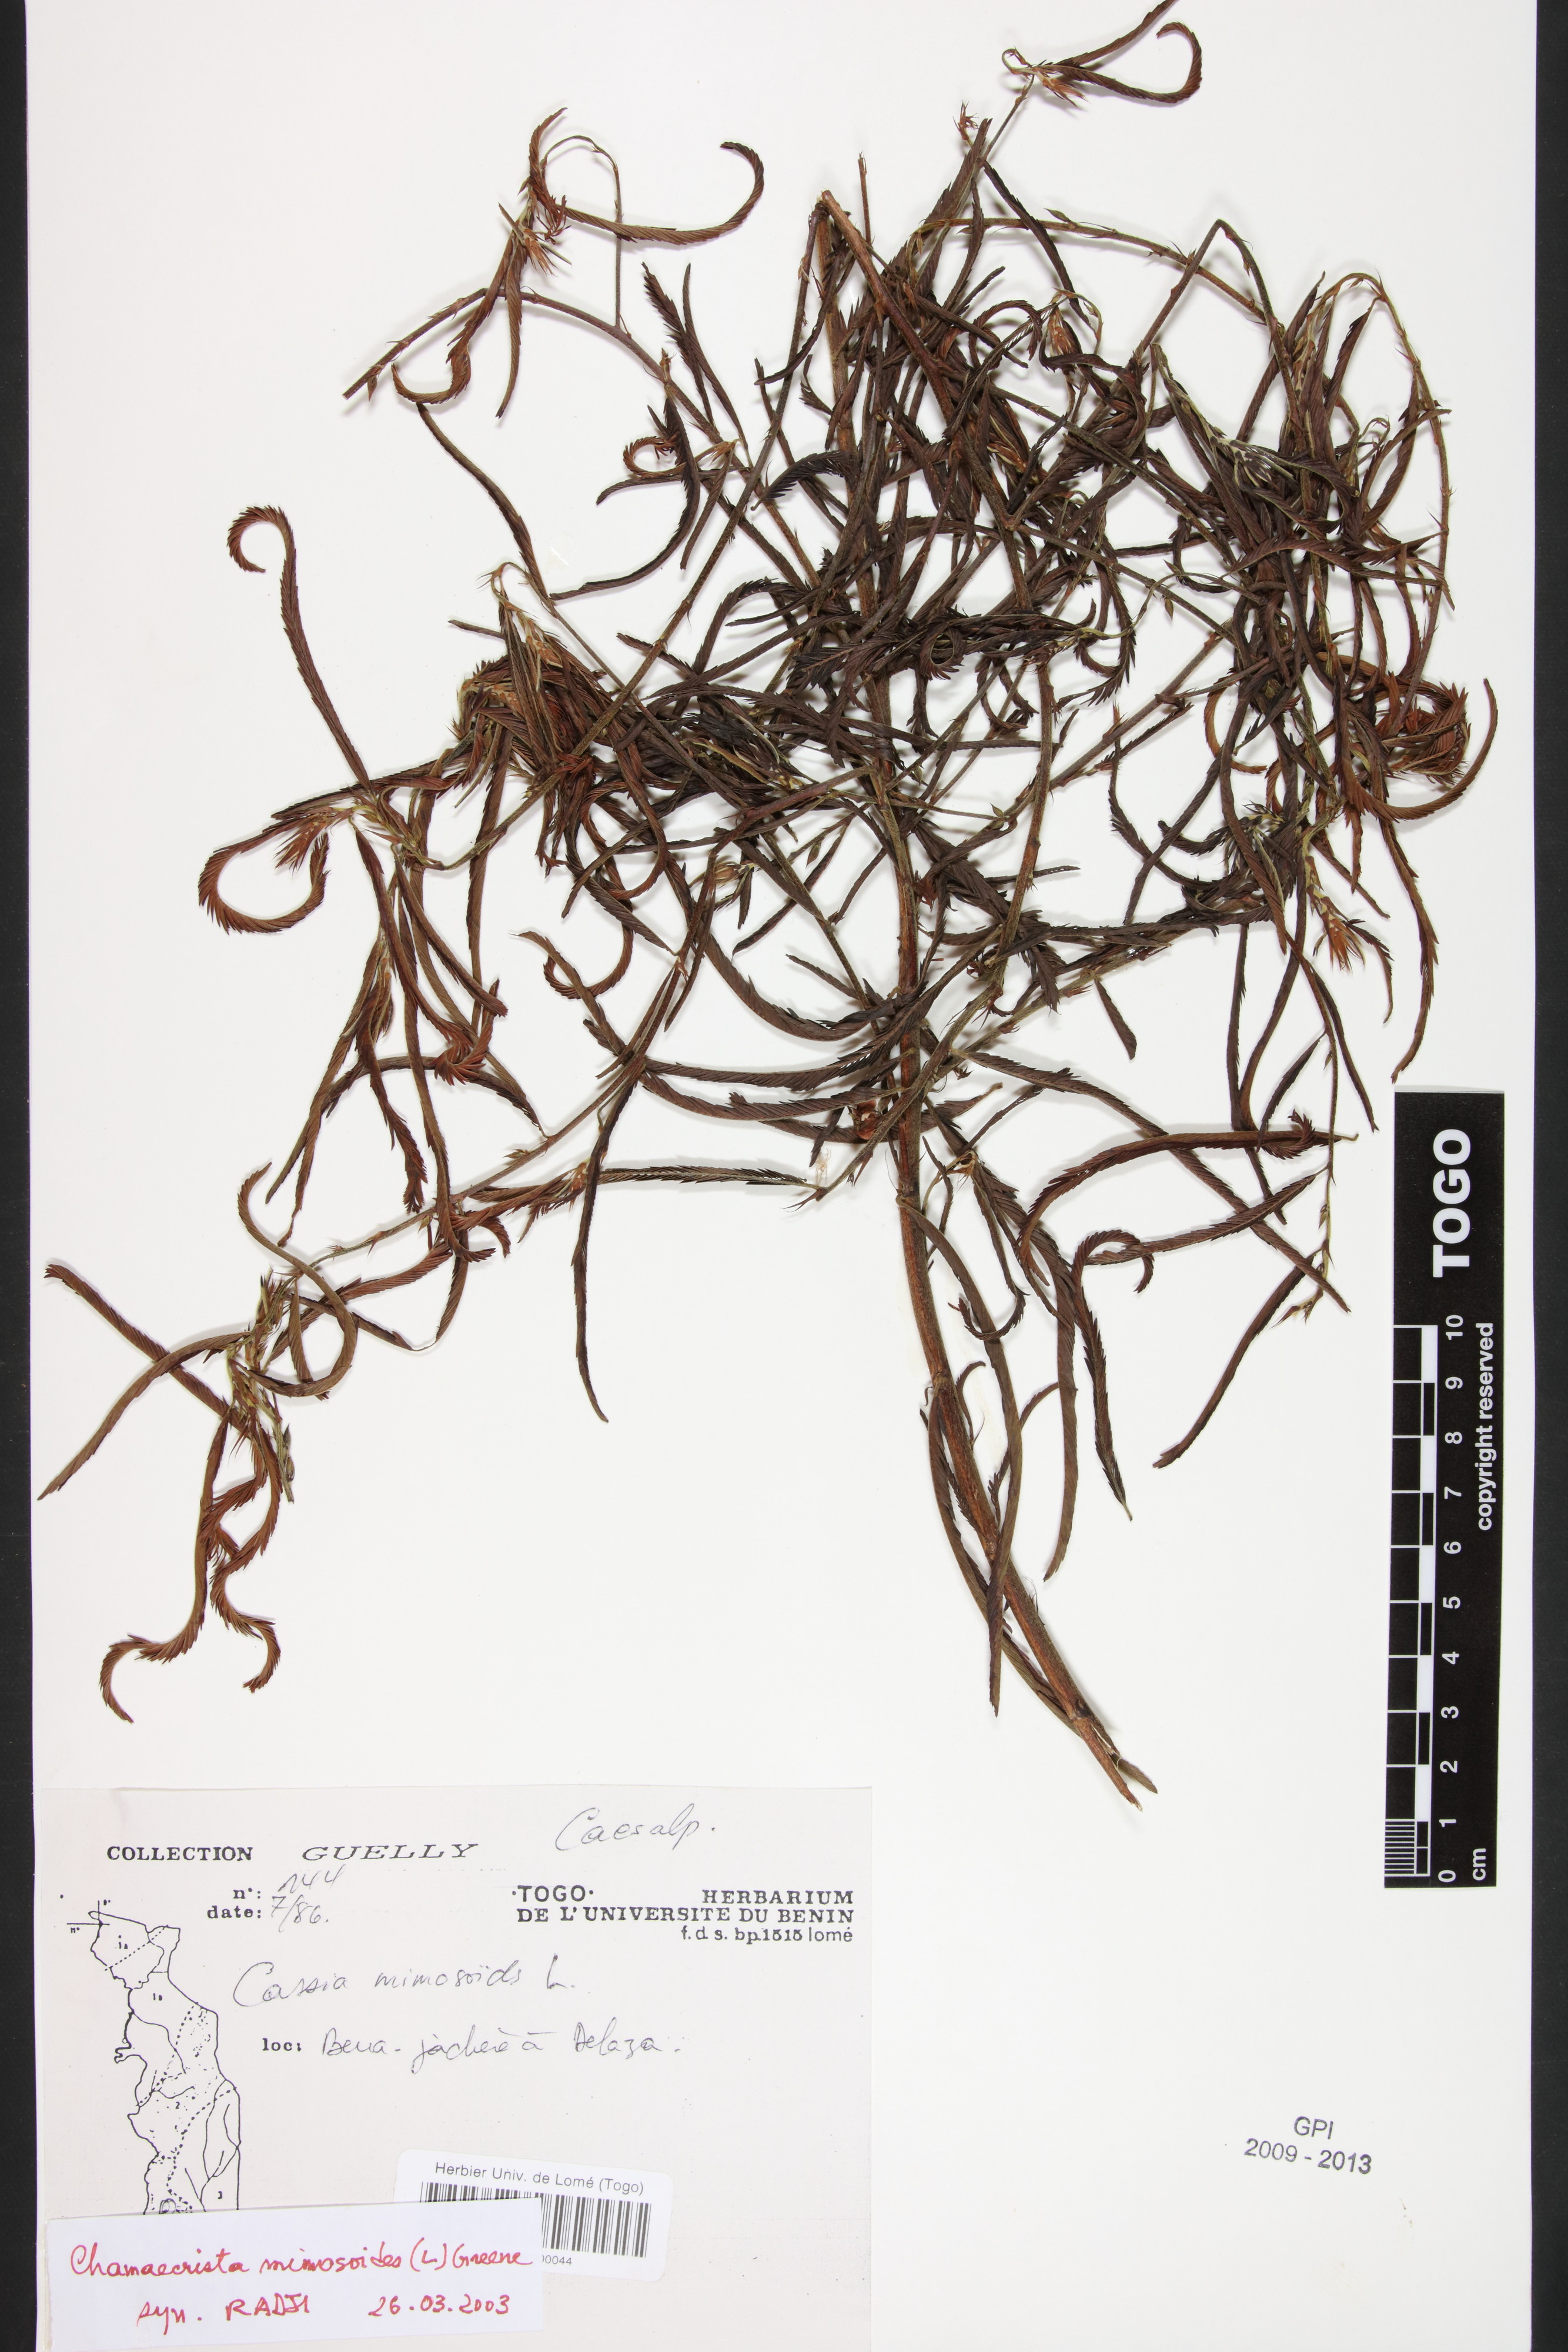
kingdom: Plantae
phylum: Tracheophyta
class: Magnoliopsida
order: Fabales
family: Fabaceae
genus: Chamaecrista
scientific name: Chamaecrista mimosoides
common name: Fish-bone cassia
